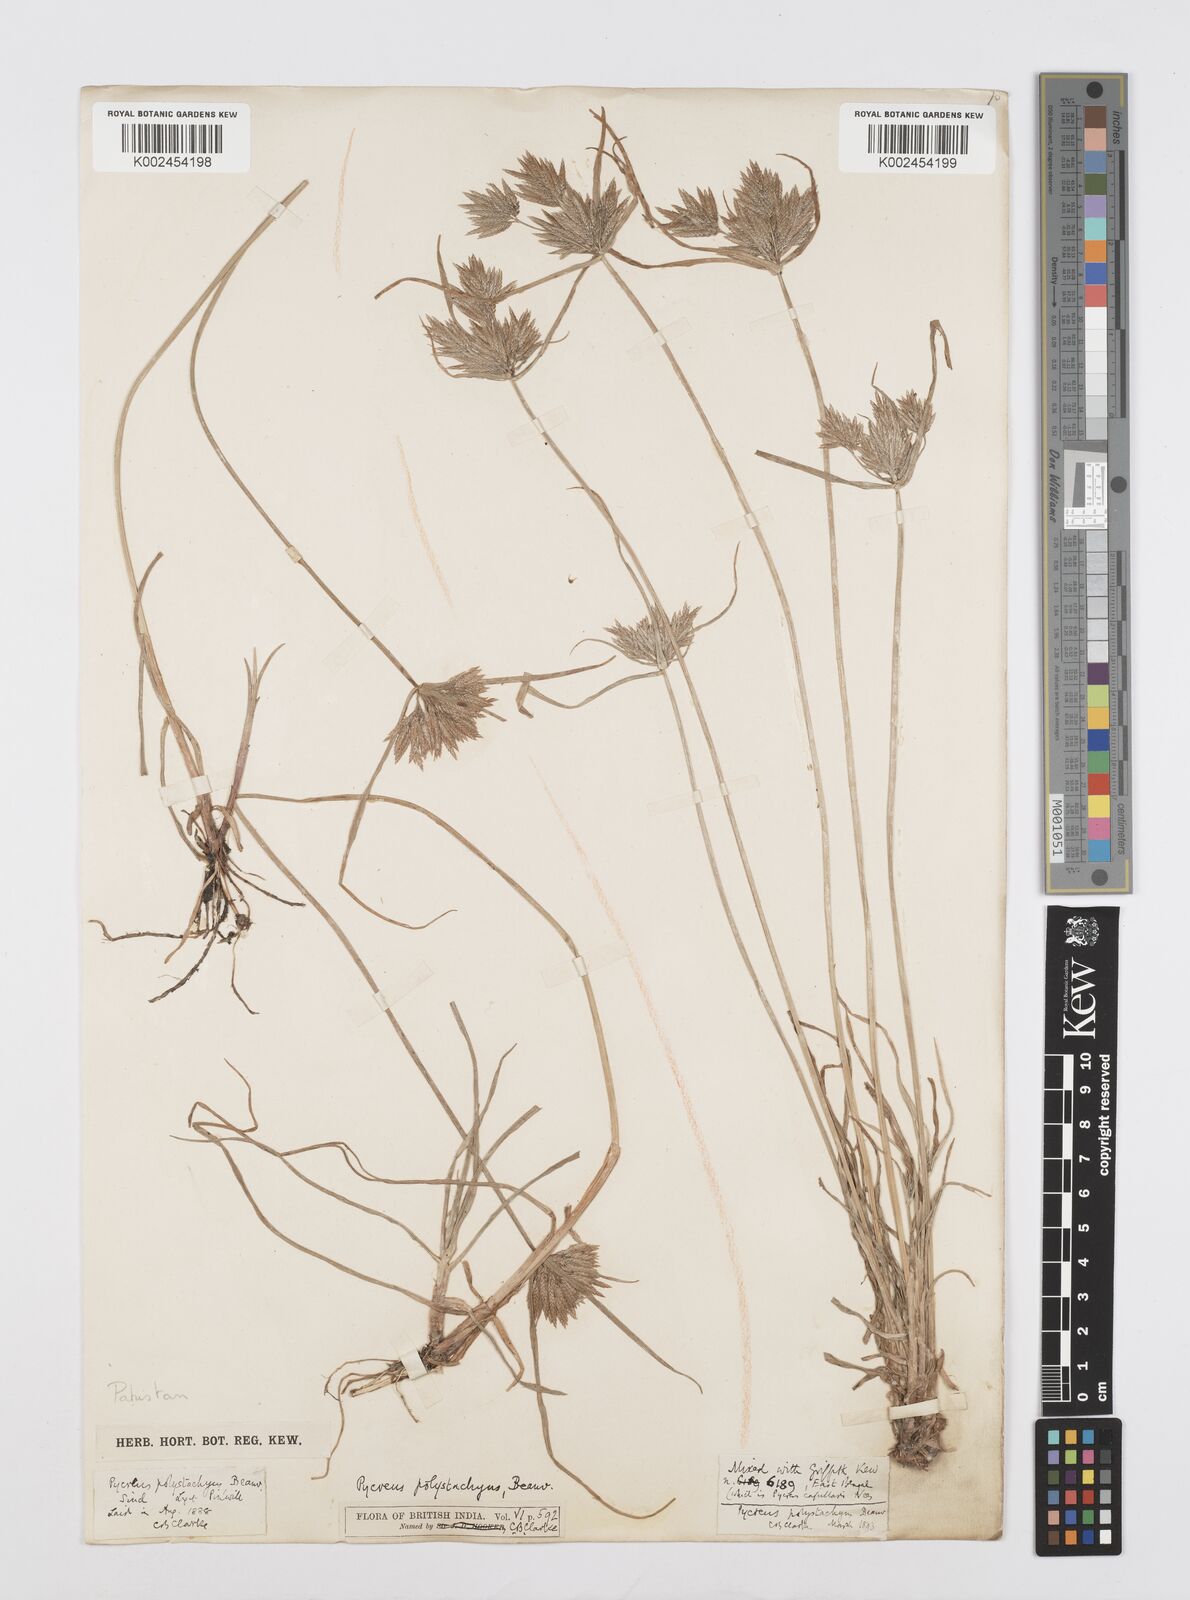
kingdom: Plantae
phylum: Tracheophyta
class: Liliopsida
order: Poales
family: Cyperaceae
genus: Cyperus
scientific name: Cyperus polystachyos
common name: Bunchy flat sedge
